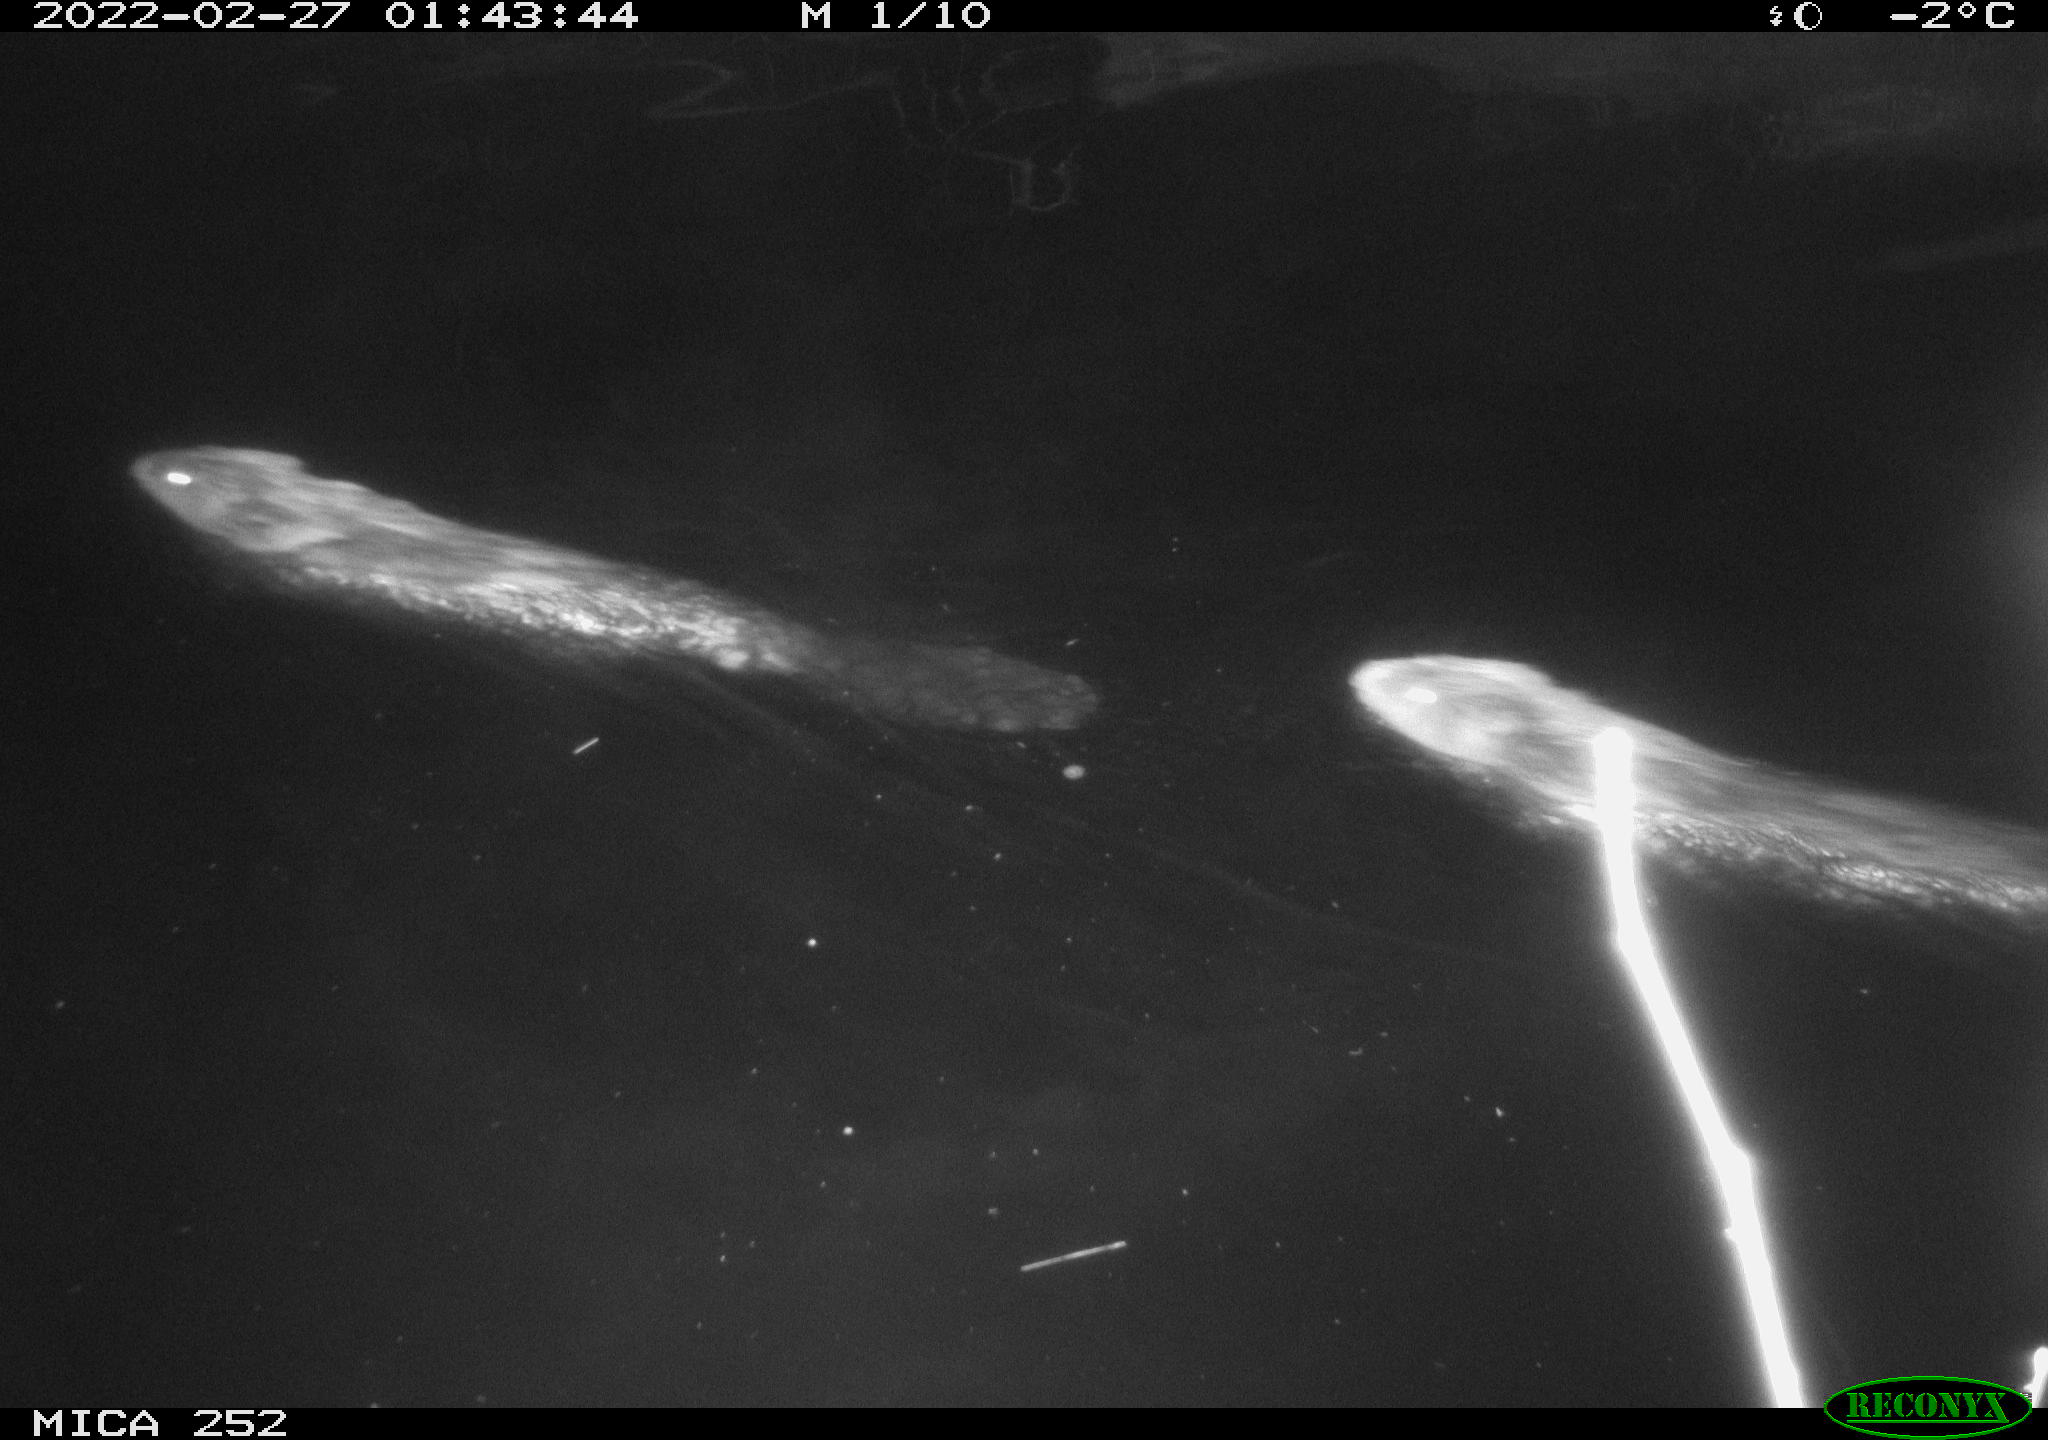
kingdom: Animalia
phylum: Chordata
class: Mammalia
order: Rodentia
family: Castoridae
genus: Castor
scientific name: Castor fiber
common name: Eurasian beaver
